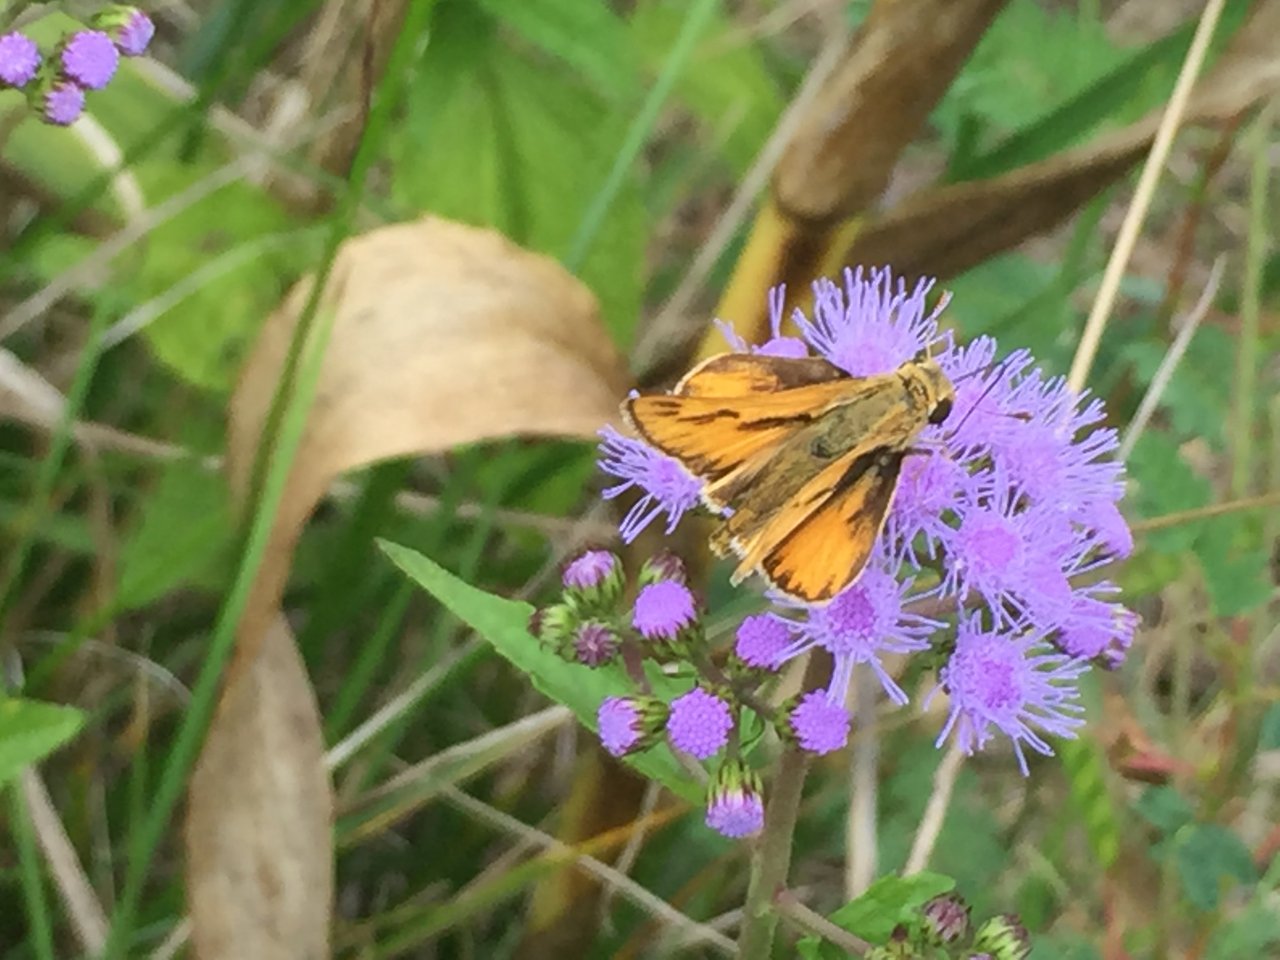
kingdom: Animalia
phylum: Arthropoda
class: Insecta
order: Lepidoptera
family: Hesperiidae
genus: Hylephila
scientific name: Hylephila phyleus
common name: Fiery Skipper
